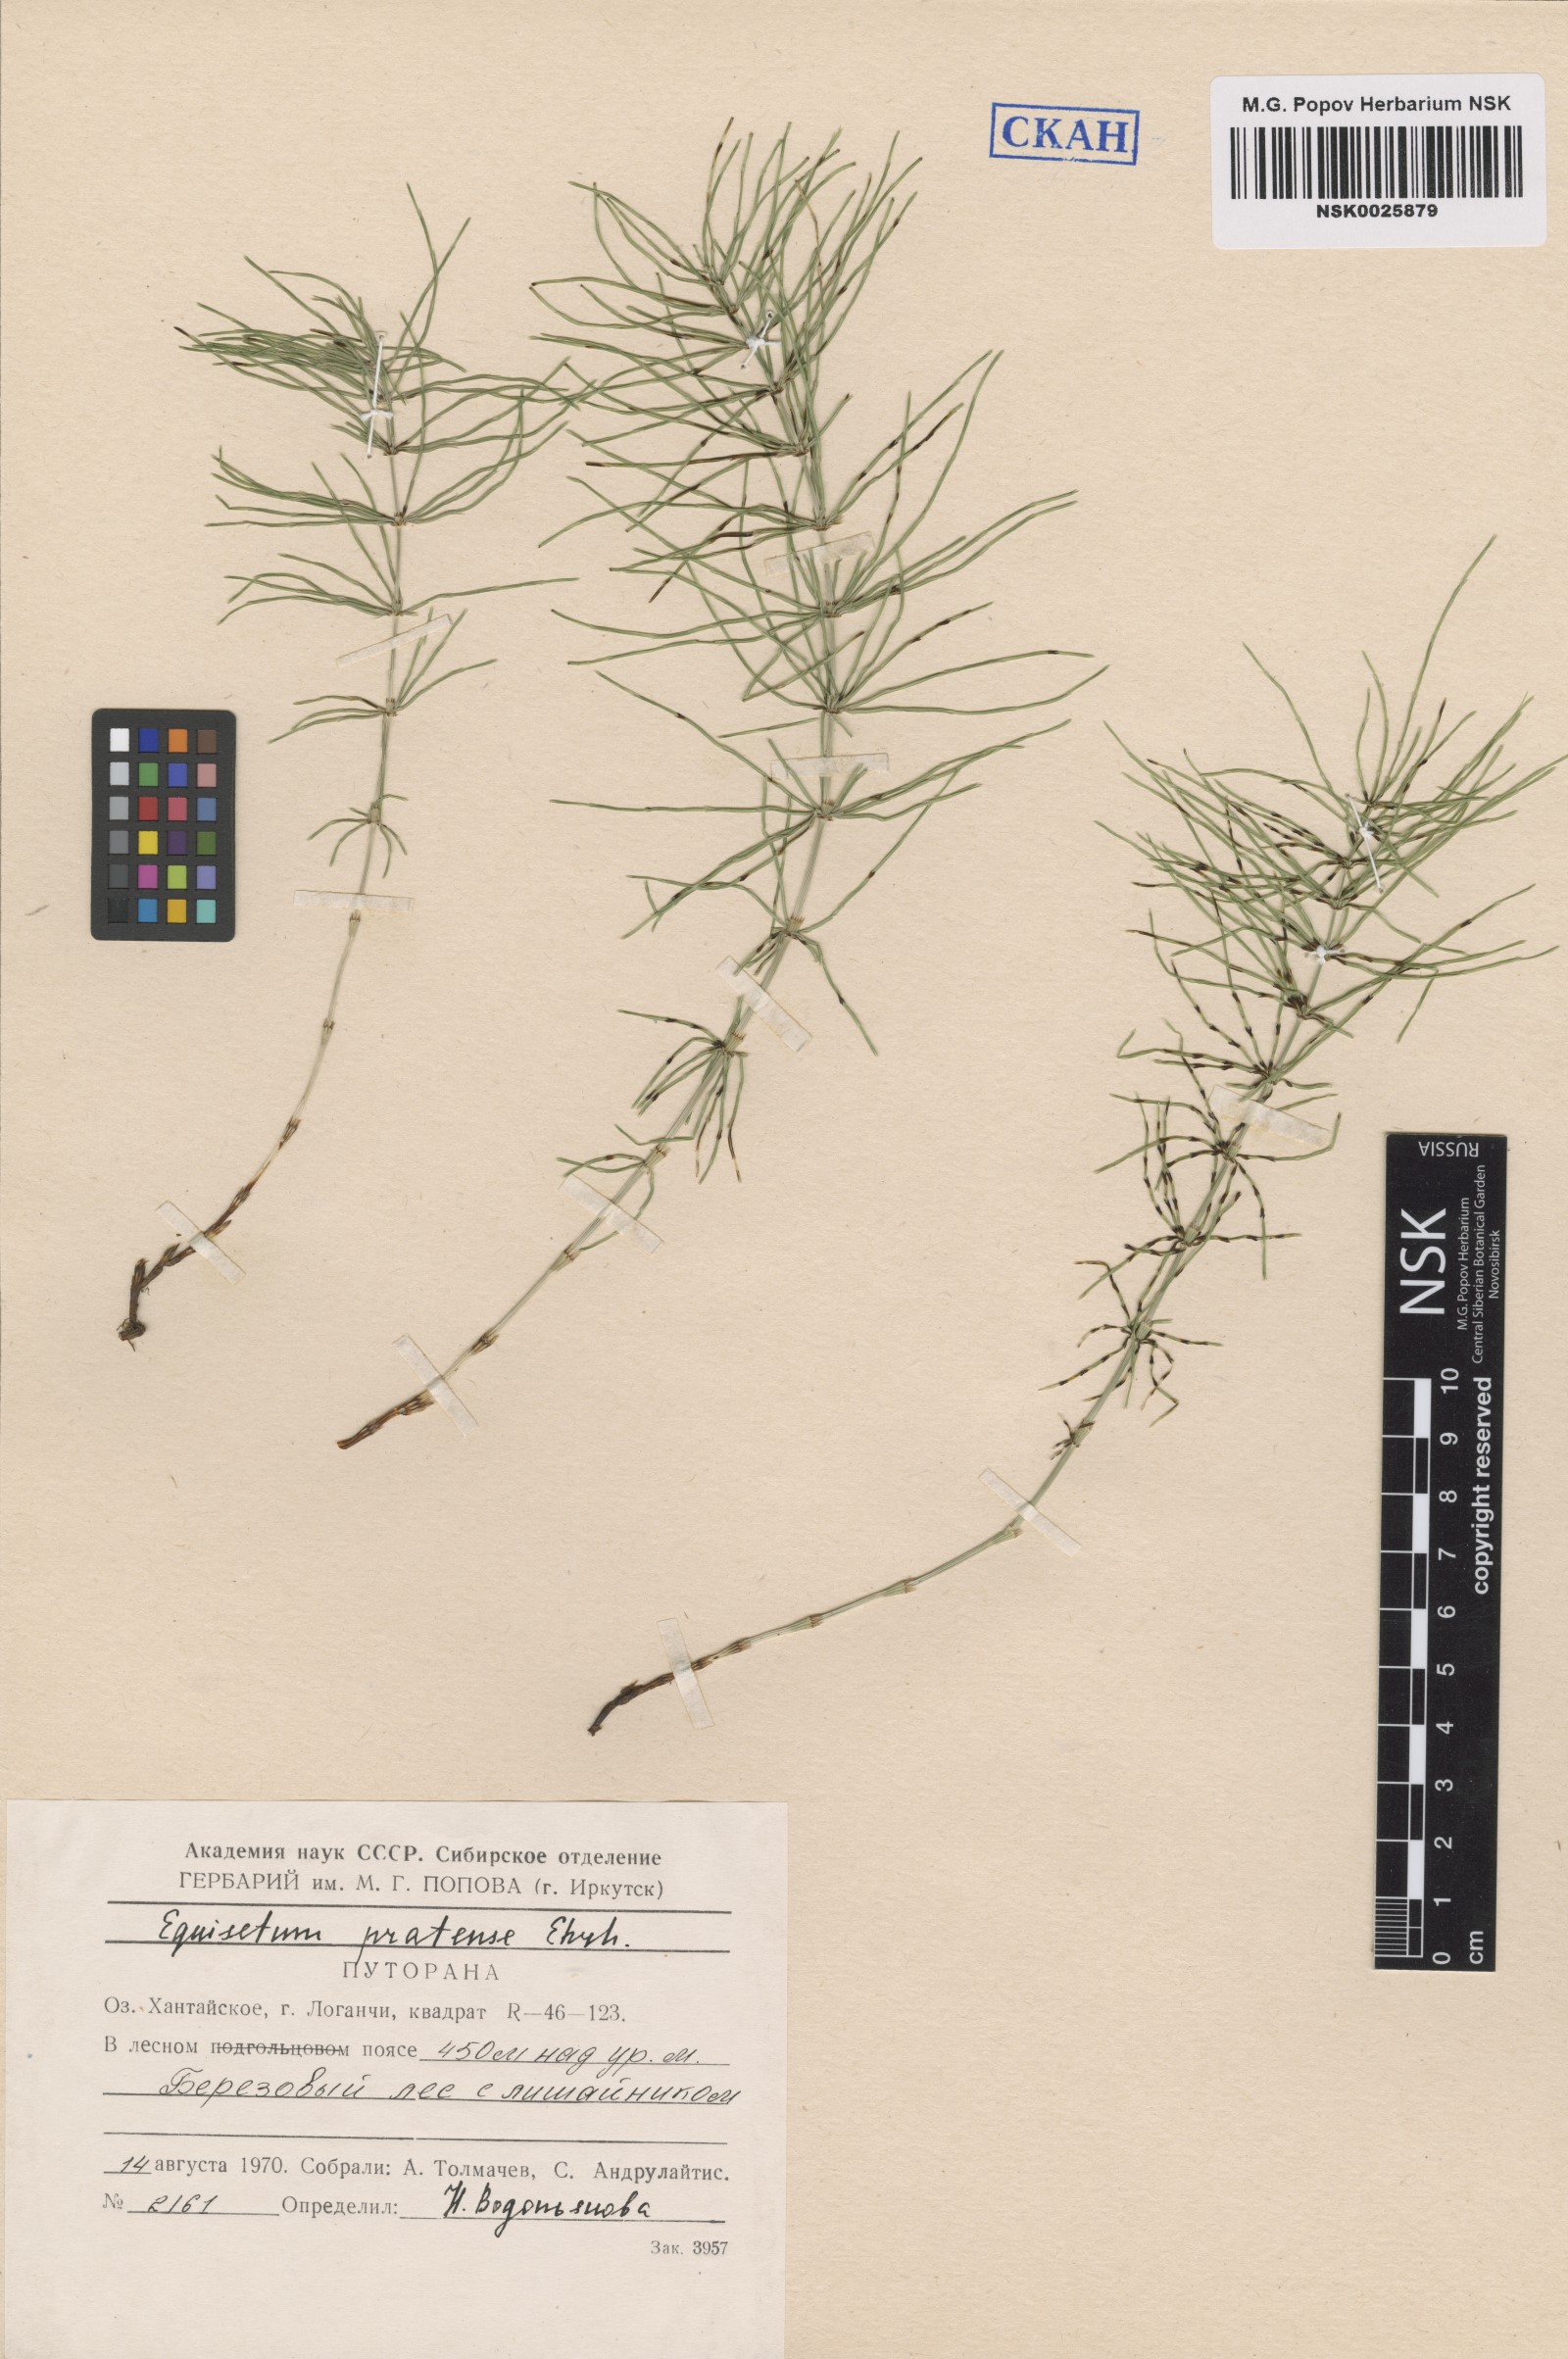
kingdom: Plantae
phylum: Tracheophyta
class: Polypodiopsida
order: Equisetales
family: Equisetaceae
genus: Equisetum
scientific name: Equisetum pratense
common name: Meadow horsetail
